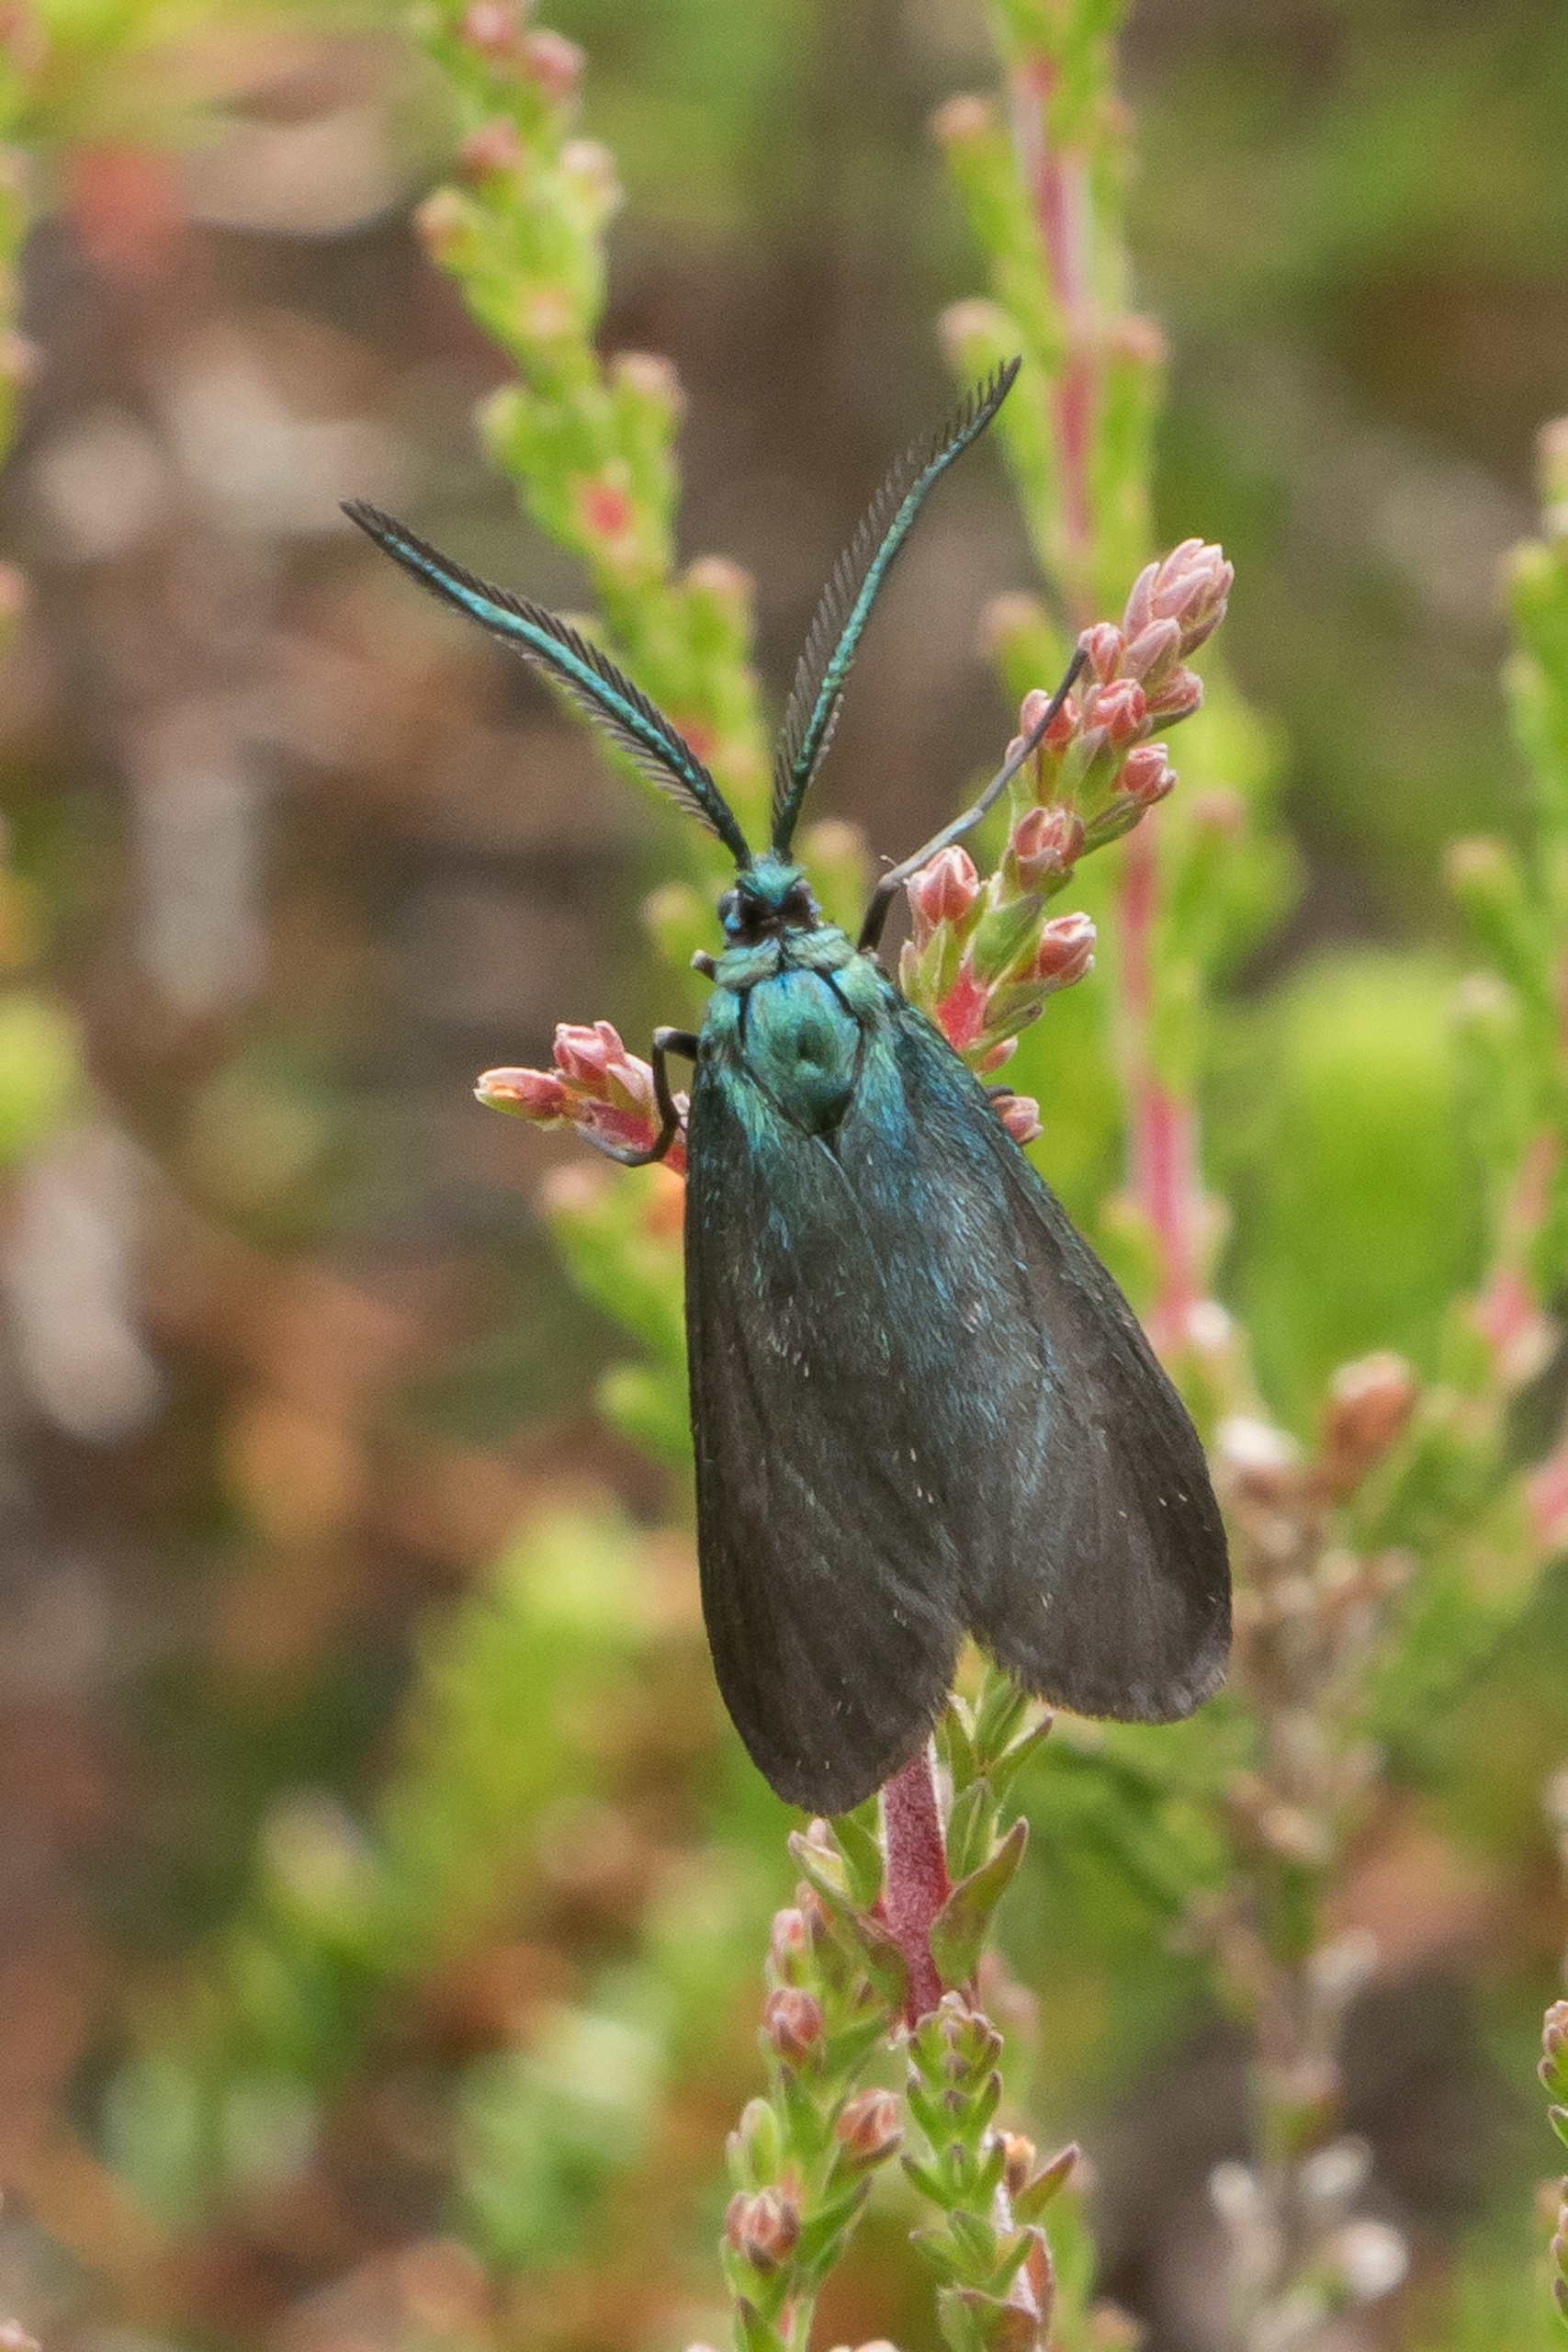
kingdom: Animalia
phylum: Arthropoda
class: Insecta
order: Lepidoptera
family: Zygaenidae
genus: Rhagades
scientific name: Rhagades pruni
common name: Brunlig metalvinge
